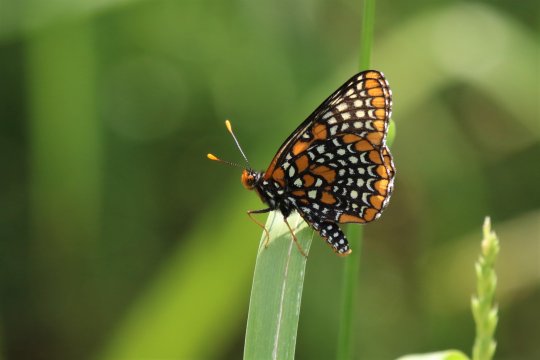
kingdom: Animalia
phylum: Arthropoda
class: Insecta
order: Lepidoptera
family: Nymphalidae
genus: Euphydryas
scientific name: Euphydryas phaeton
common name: Baltimore Checkerspot
